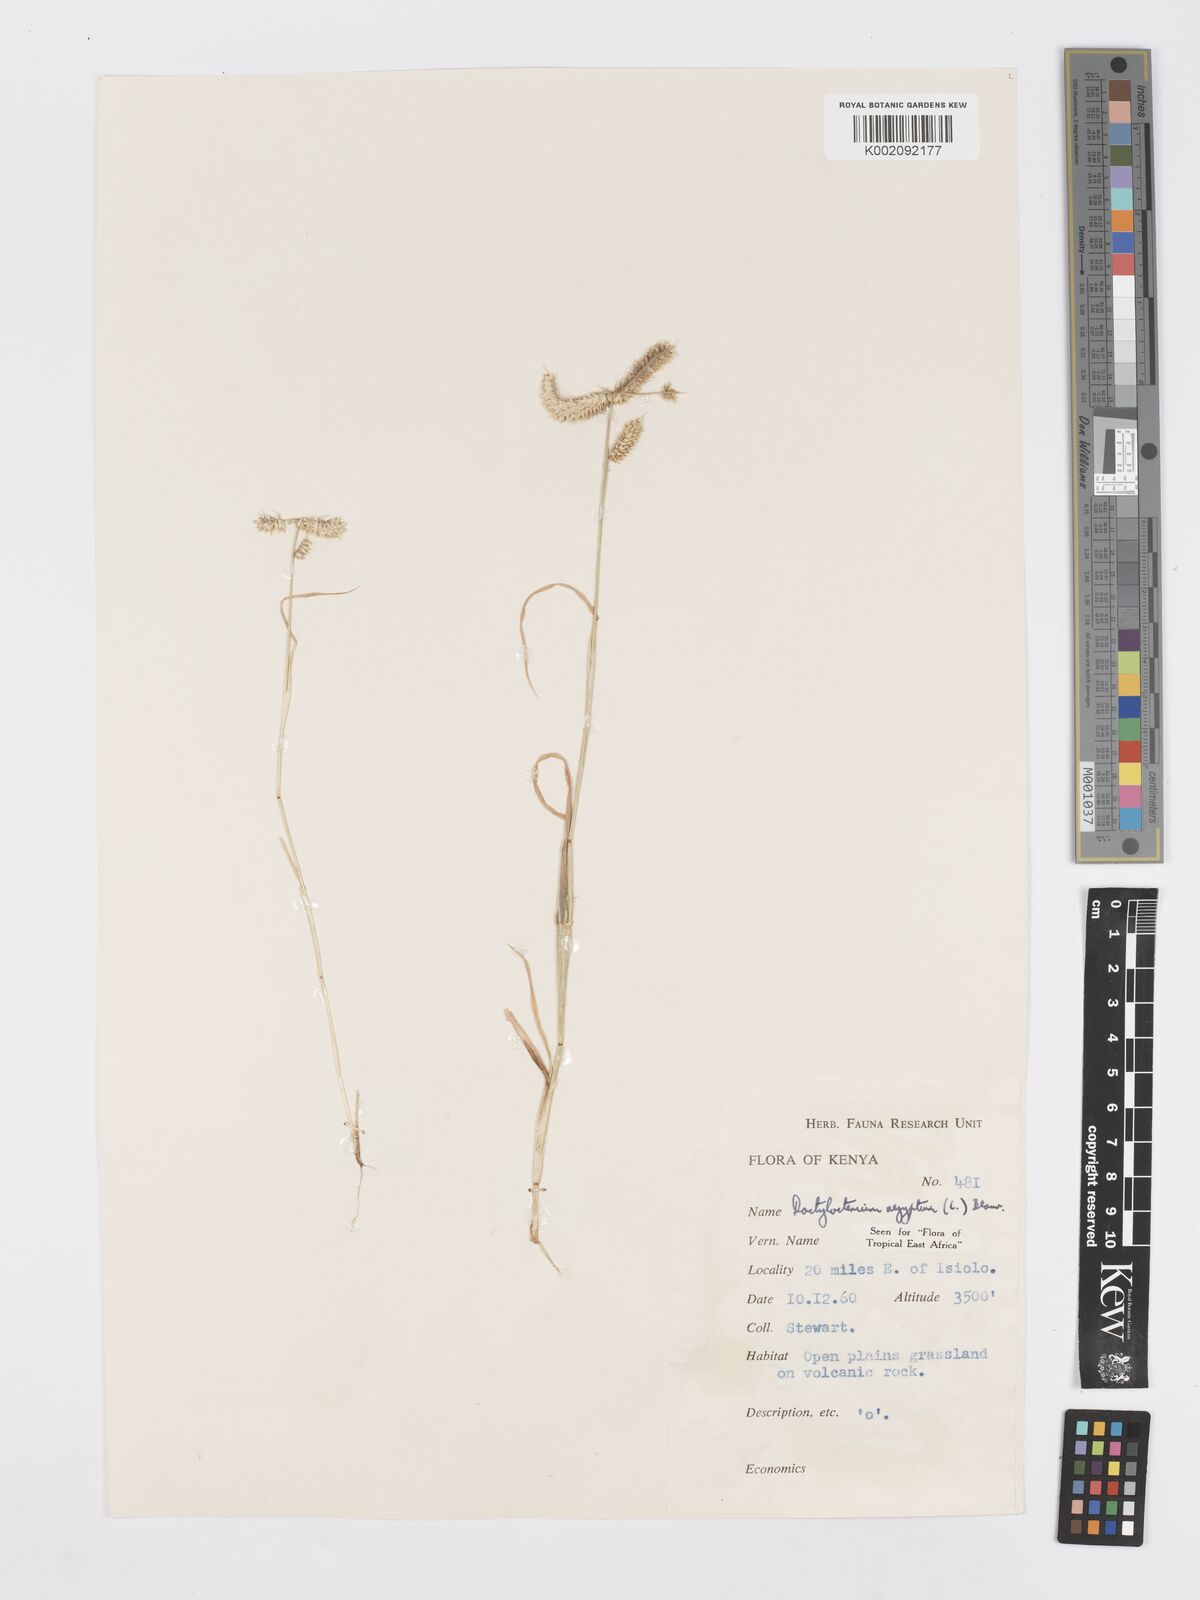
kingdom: Plantae
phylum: Tracheophyta
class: Liliopsida
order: Poales
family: Poaceae
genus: Dactyloctenium
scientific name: Dactyloctenium aegyptium
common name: Egyptian grass
